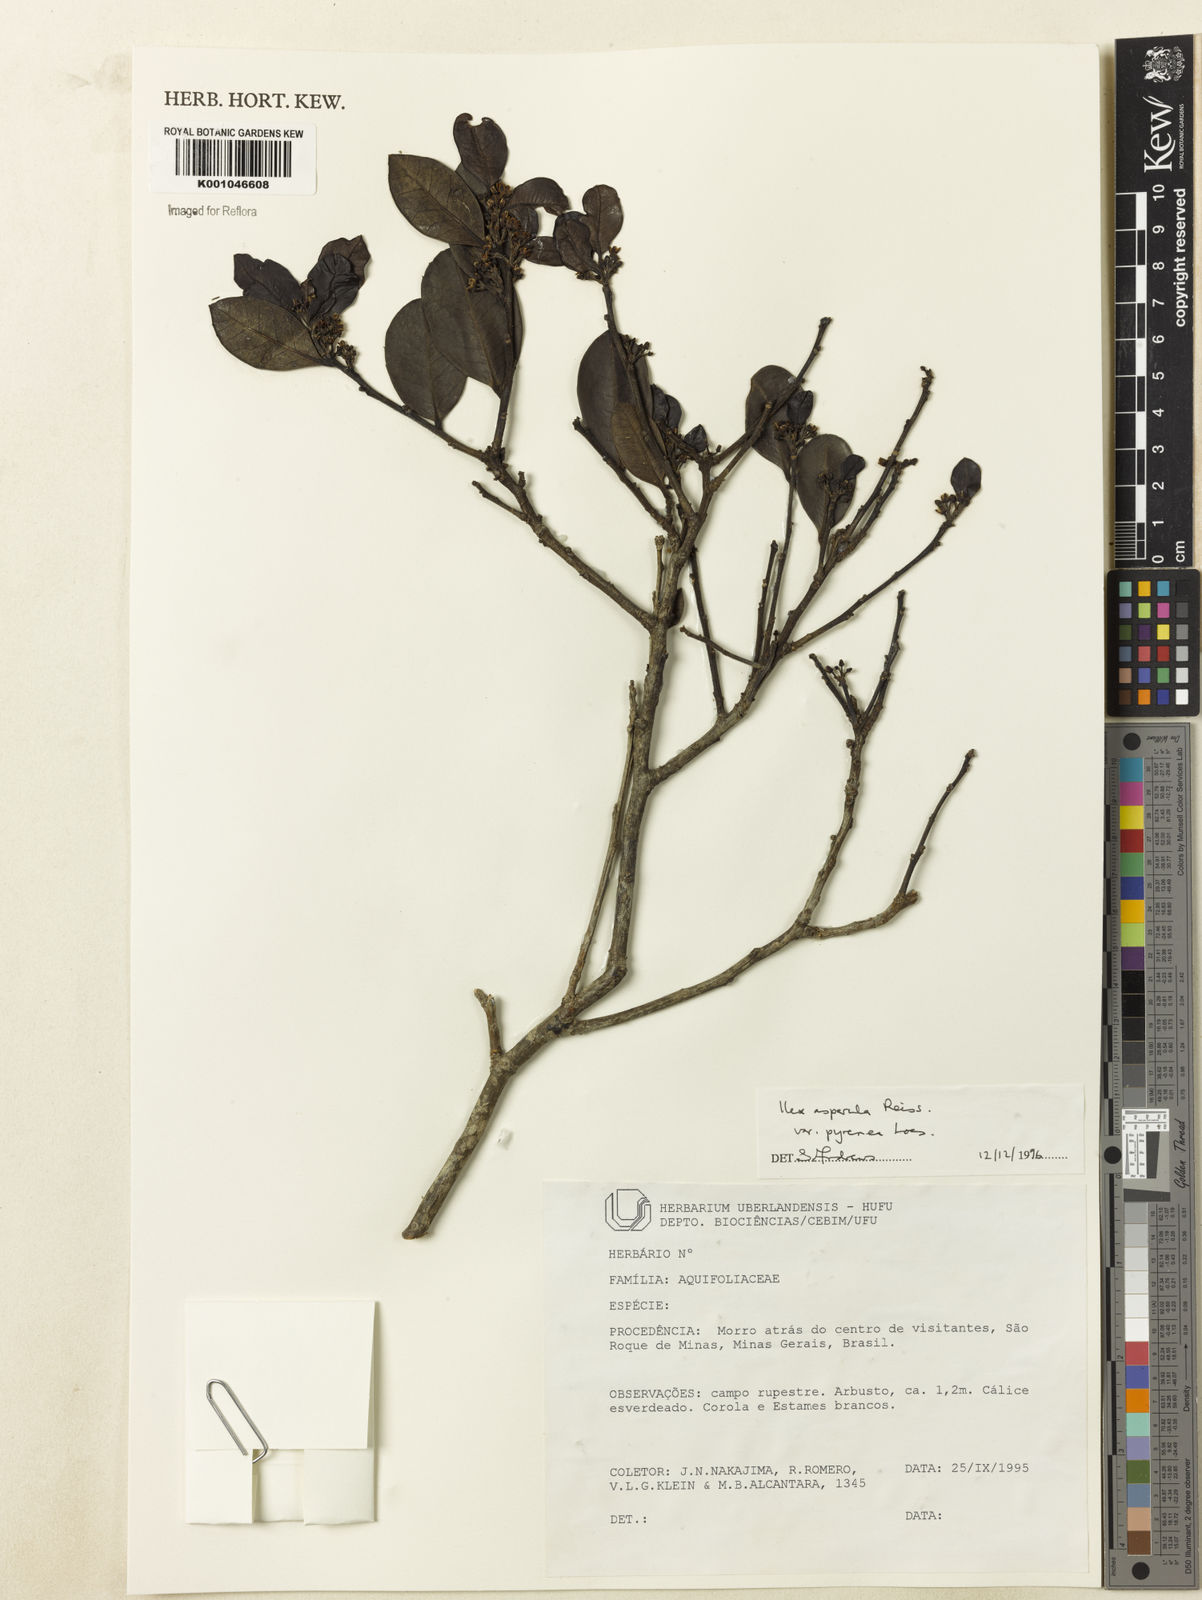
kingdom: Plantae
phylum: Tracheophyta
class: Magnoliopsida
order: Aquifoliales
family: Aquifoliaceae
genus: Ilex
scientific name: Ilex asperula
